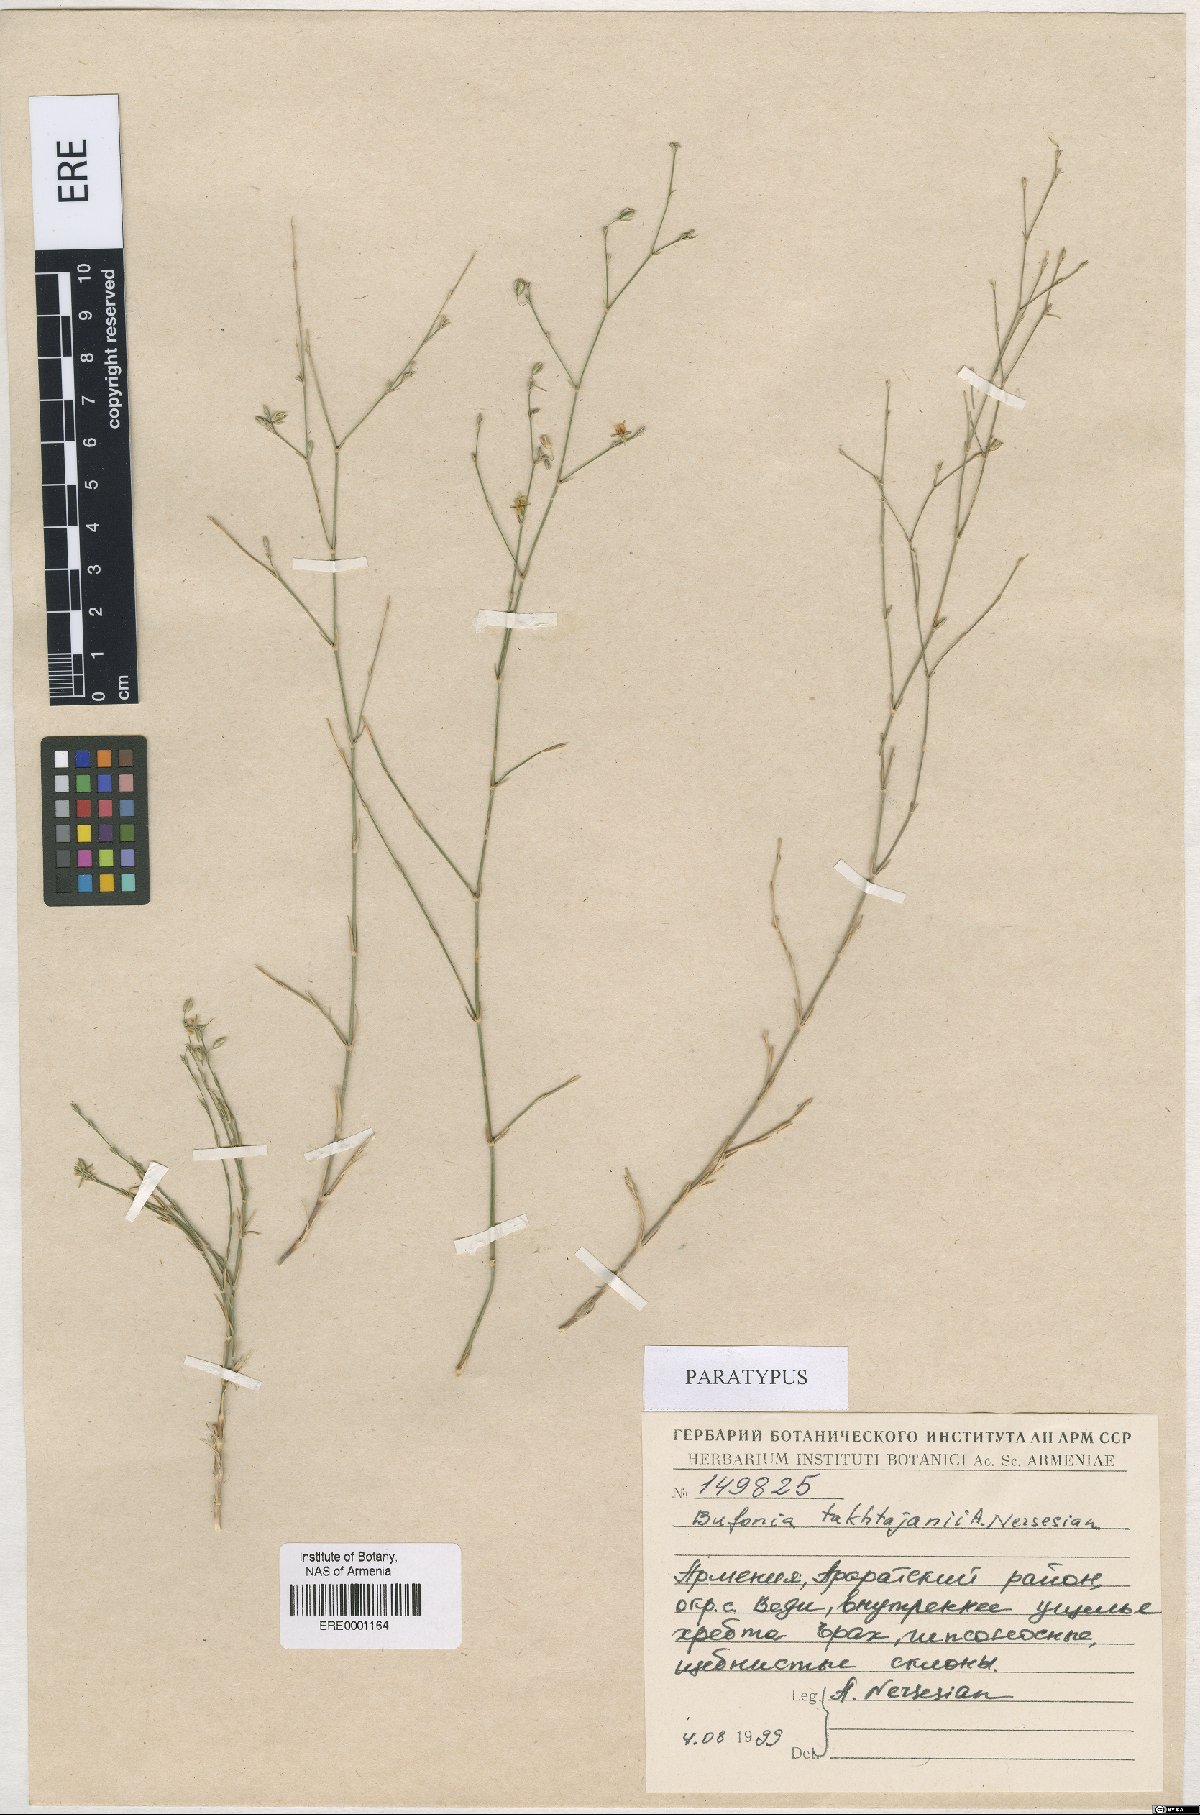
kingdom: Plantae
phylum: Tracheophyta
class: Magnoliopsida
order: Caryophyllales
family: Caryophyllaceae
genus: Bufonia
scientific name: Bufonia takhtajanii
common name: Takhtadjyan's bufonia
